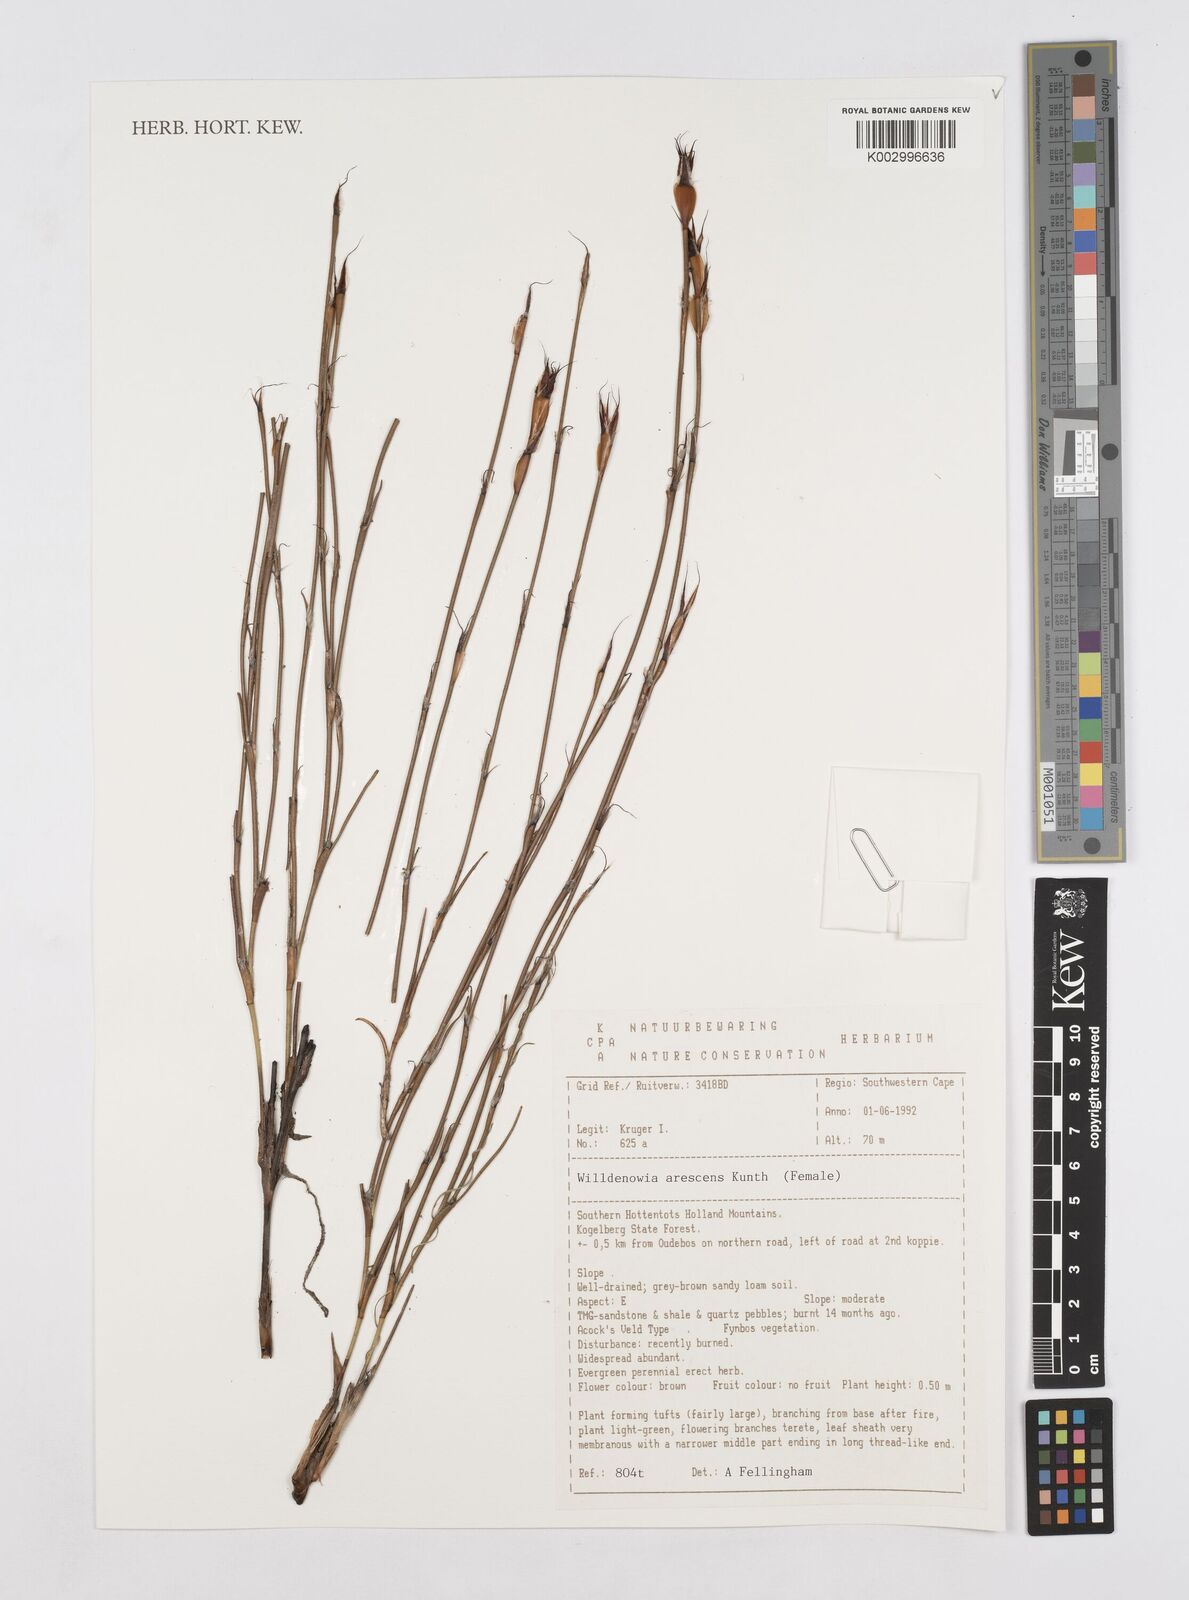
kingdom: Plantae
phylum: Tracheophyta
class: Liliopsida
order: Poales
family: Restionaceae
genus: Willdenowia
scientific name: Willdenowia arescens
